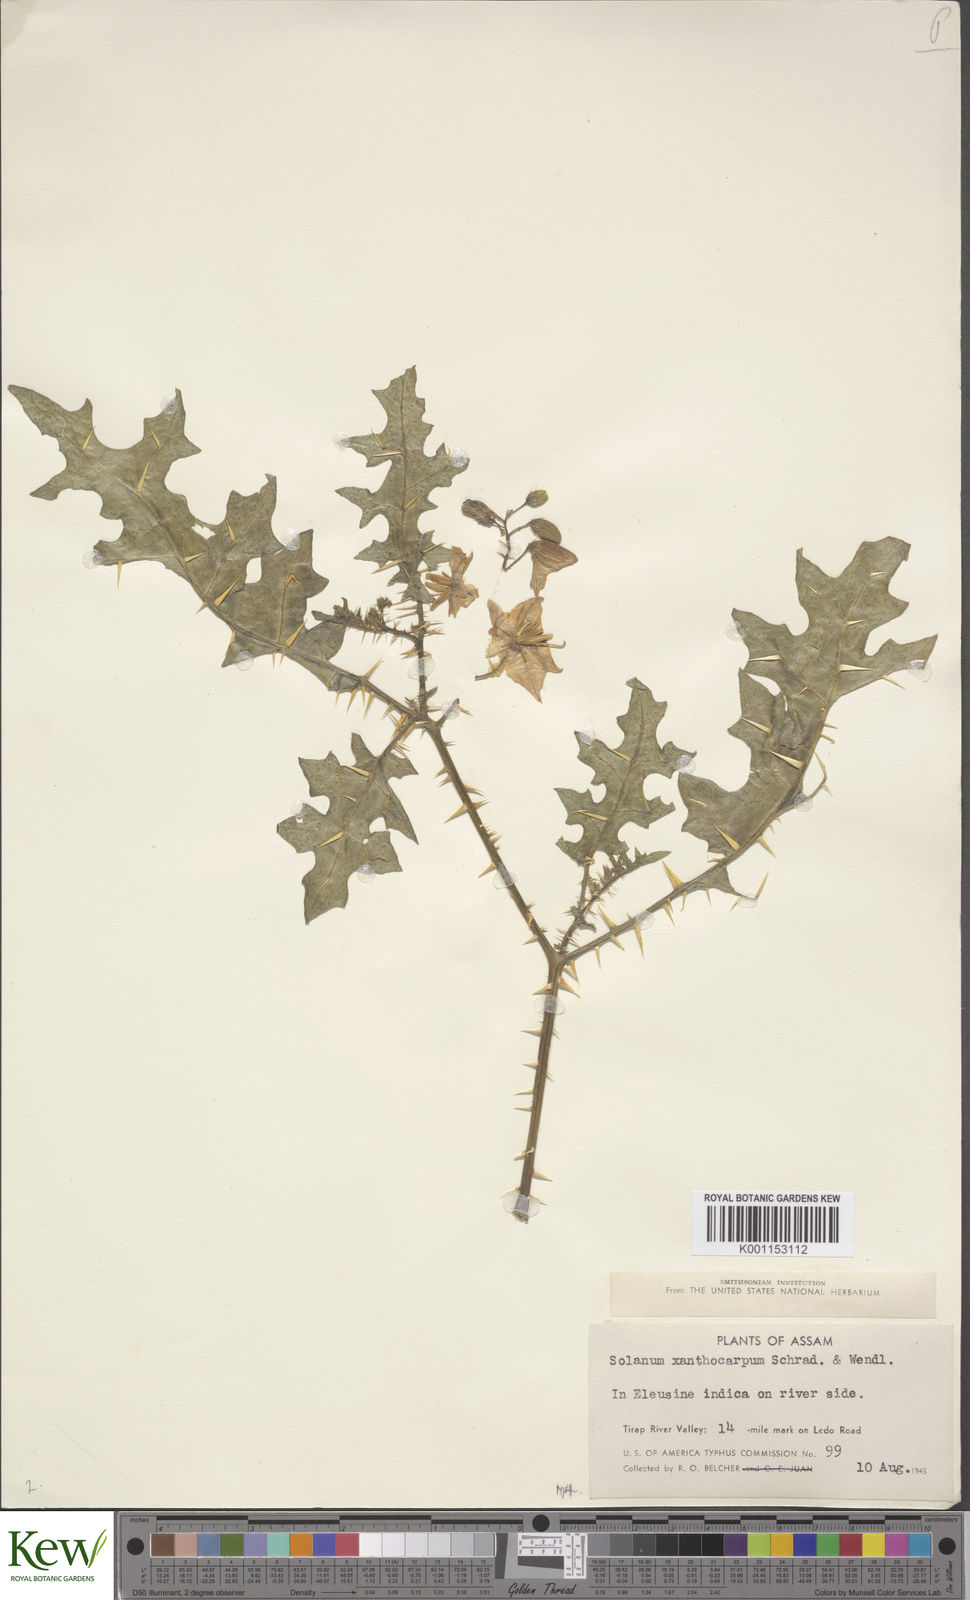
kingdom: Plantae
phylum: Tracheophyta
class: Magnoliopsida
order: Solanales
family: Solanaceae
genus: Solanum
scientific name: Solanum virginianum
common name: Surattense nightshade
